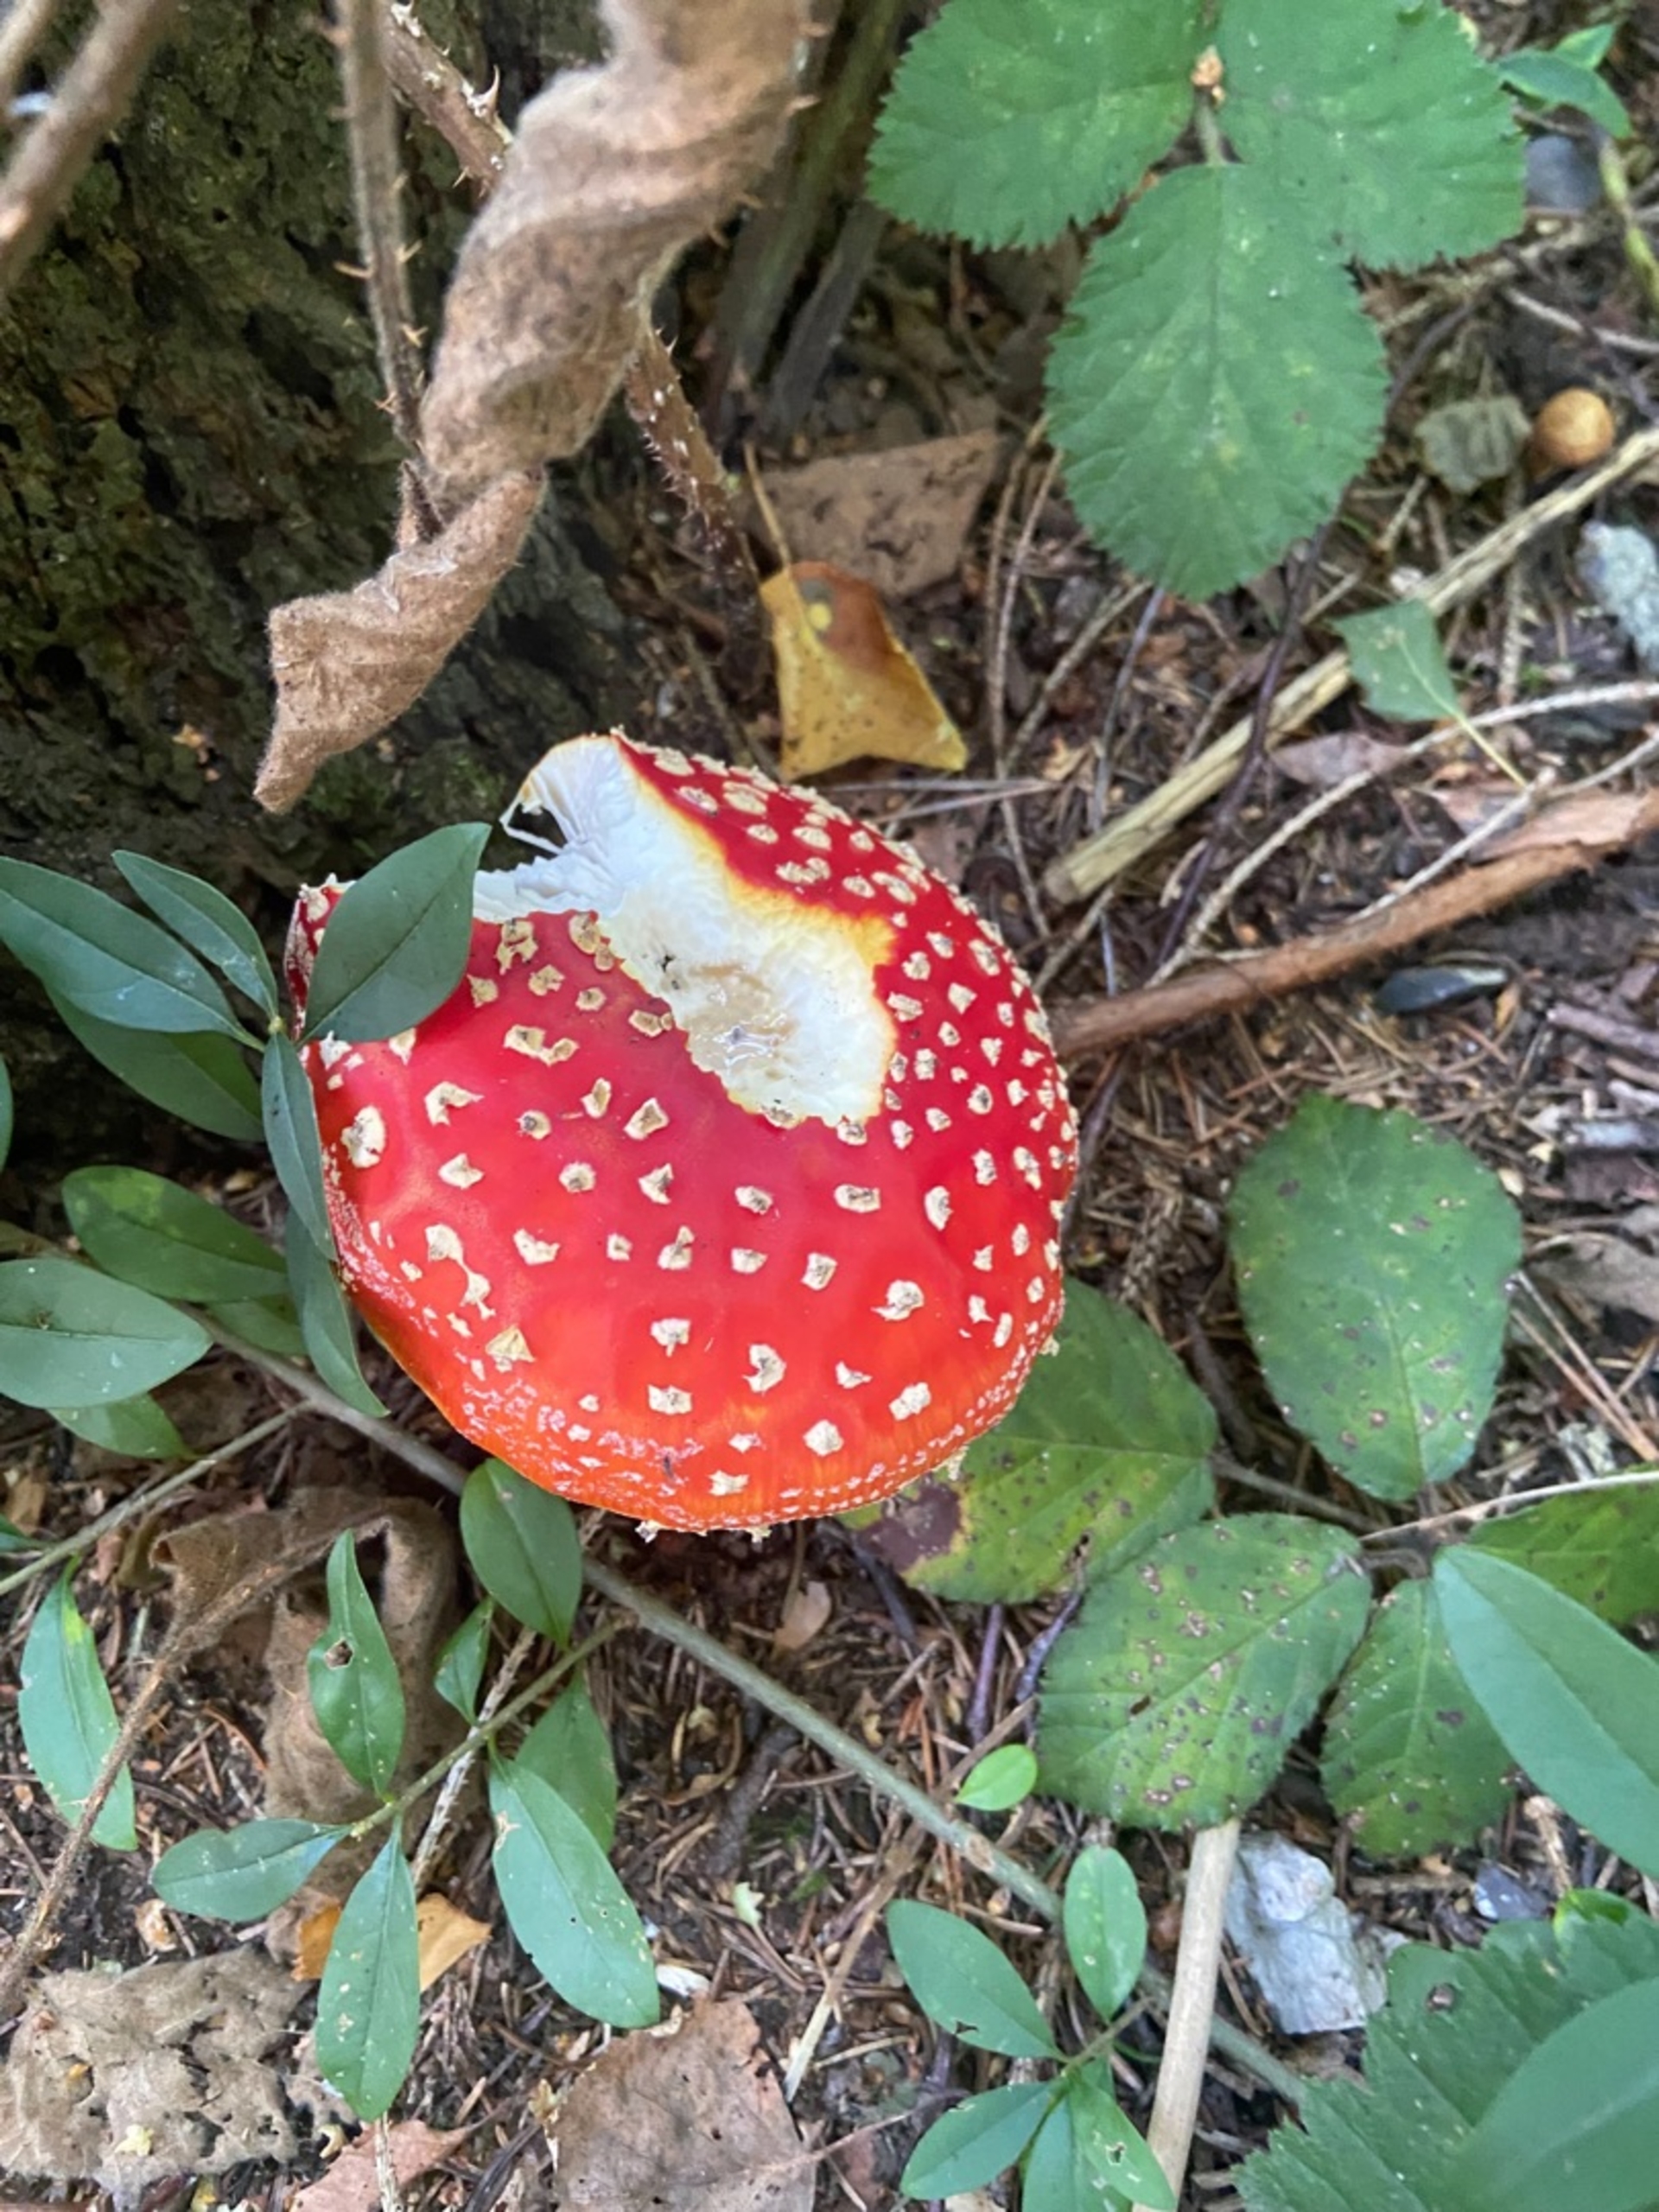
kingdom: Fungi
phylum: Basidiomycota
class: Agaricomycetes
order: Agaricales
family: Amanitaceae
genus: Amanita
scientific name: Amanita muscaria
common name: Rød fluesvamp
